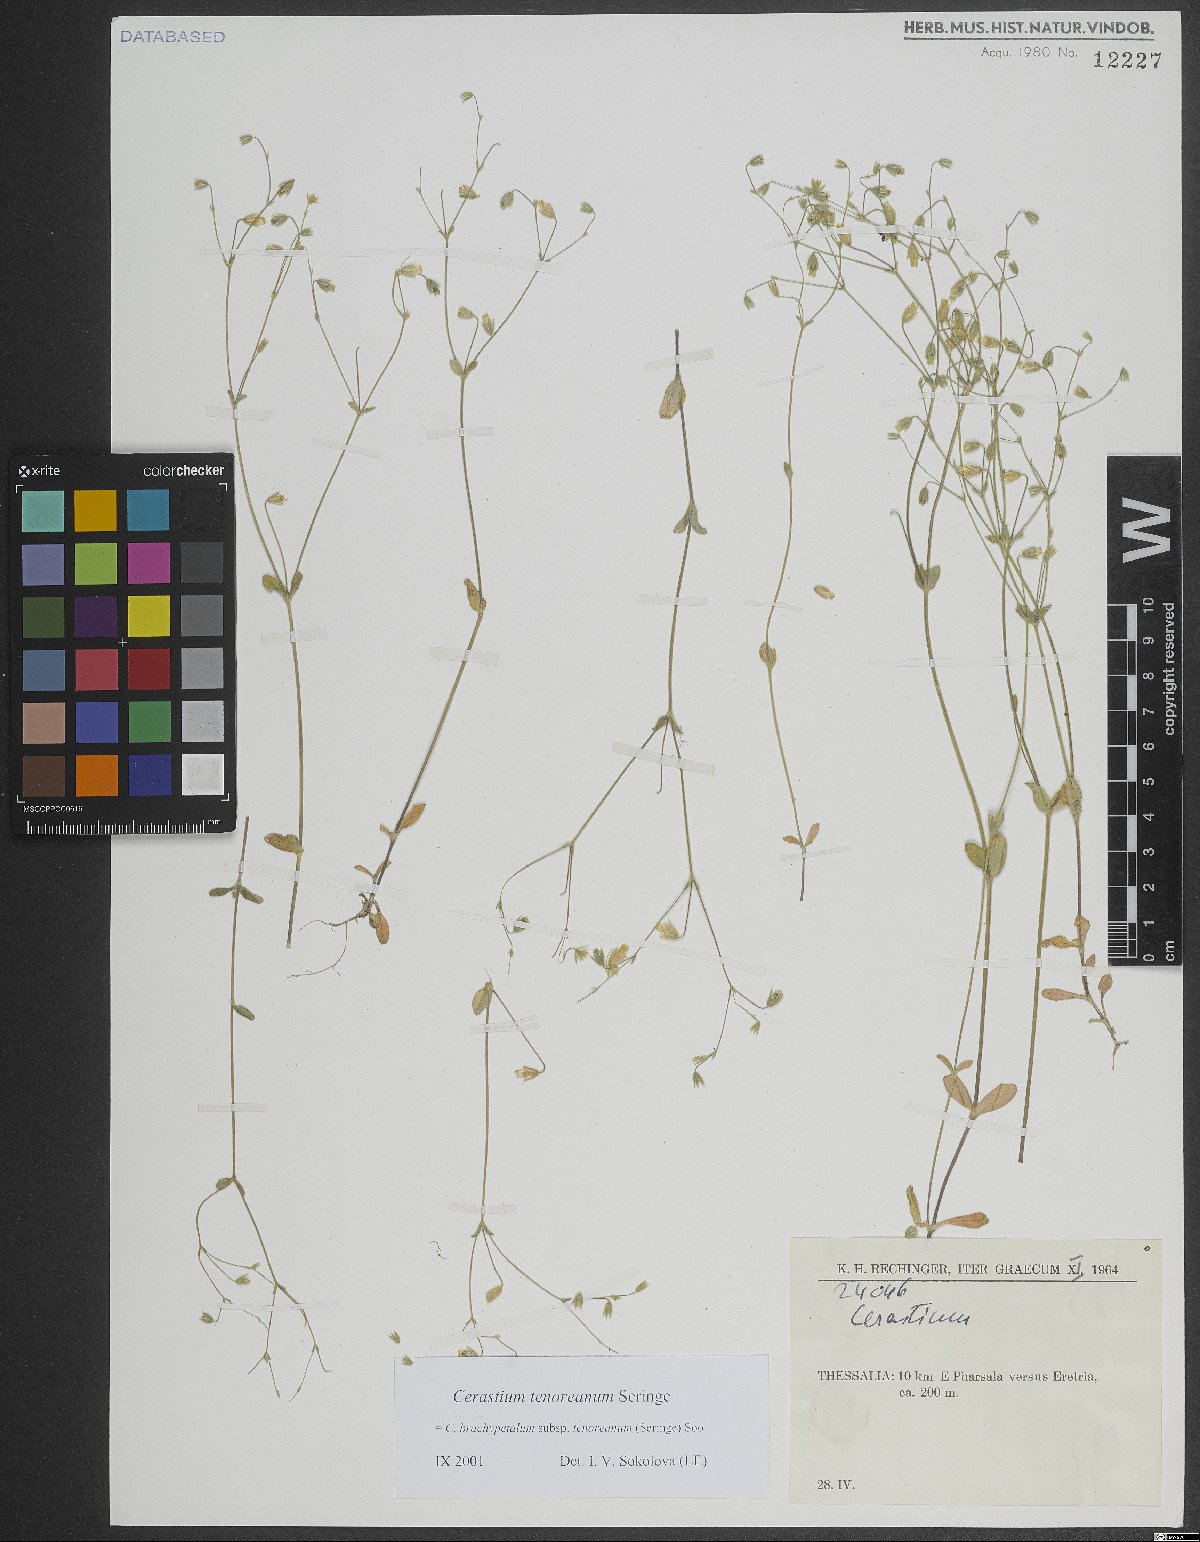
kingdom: Plantae
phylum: Tracheophyta
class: Magnoliopsida
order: Caryophyllales
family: Caryophyllaceae
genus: Cerastium
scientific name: Cerastium tenoreanum
